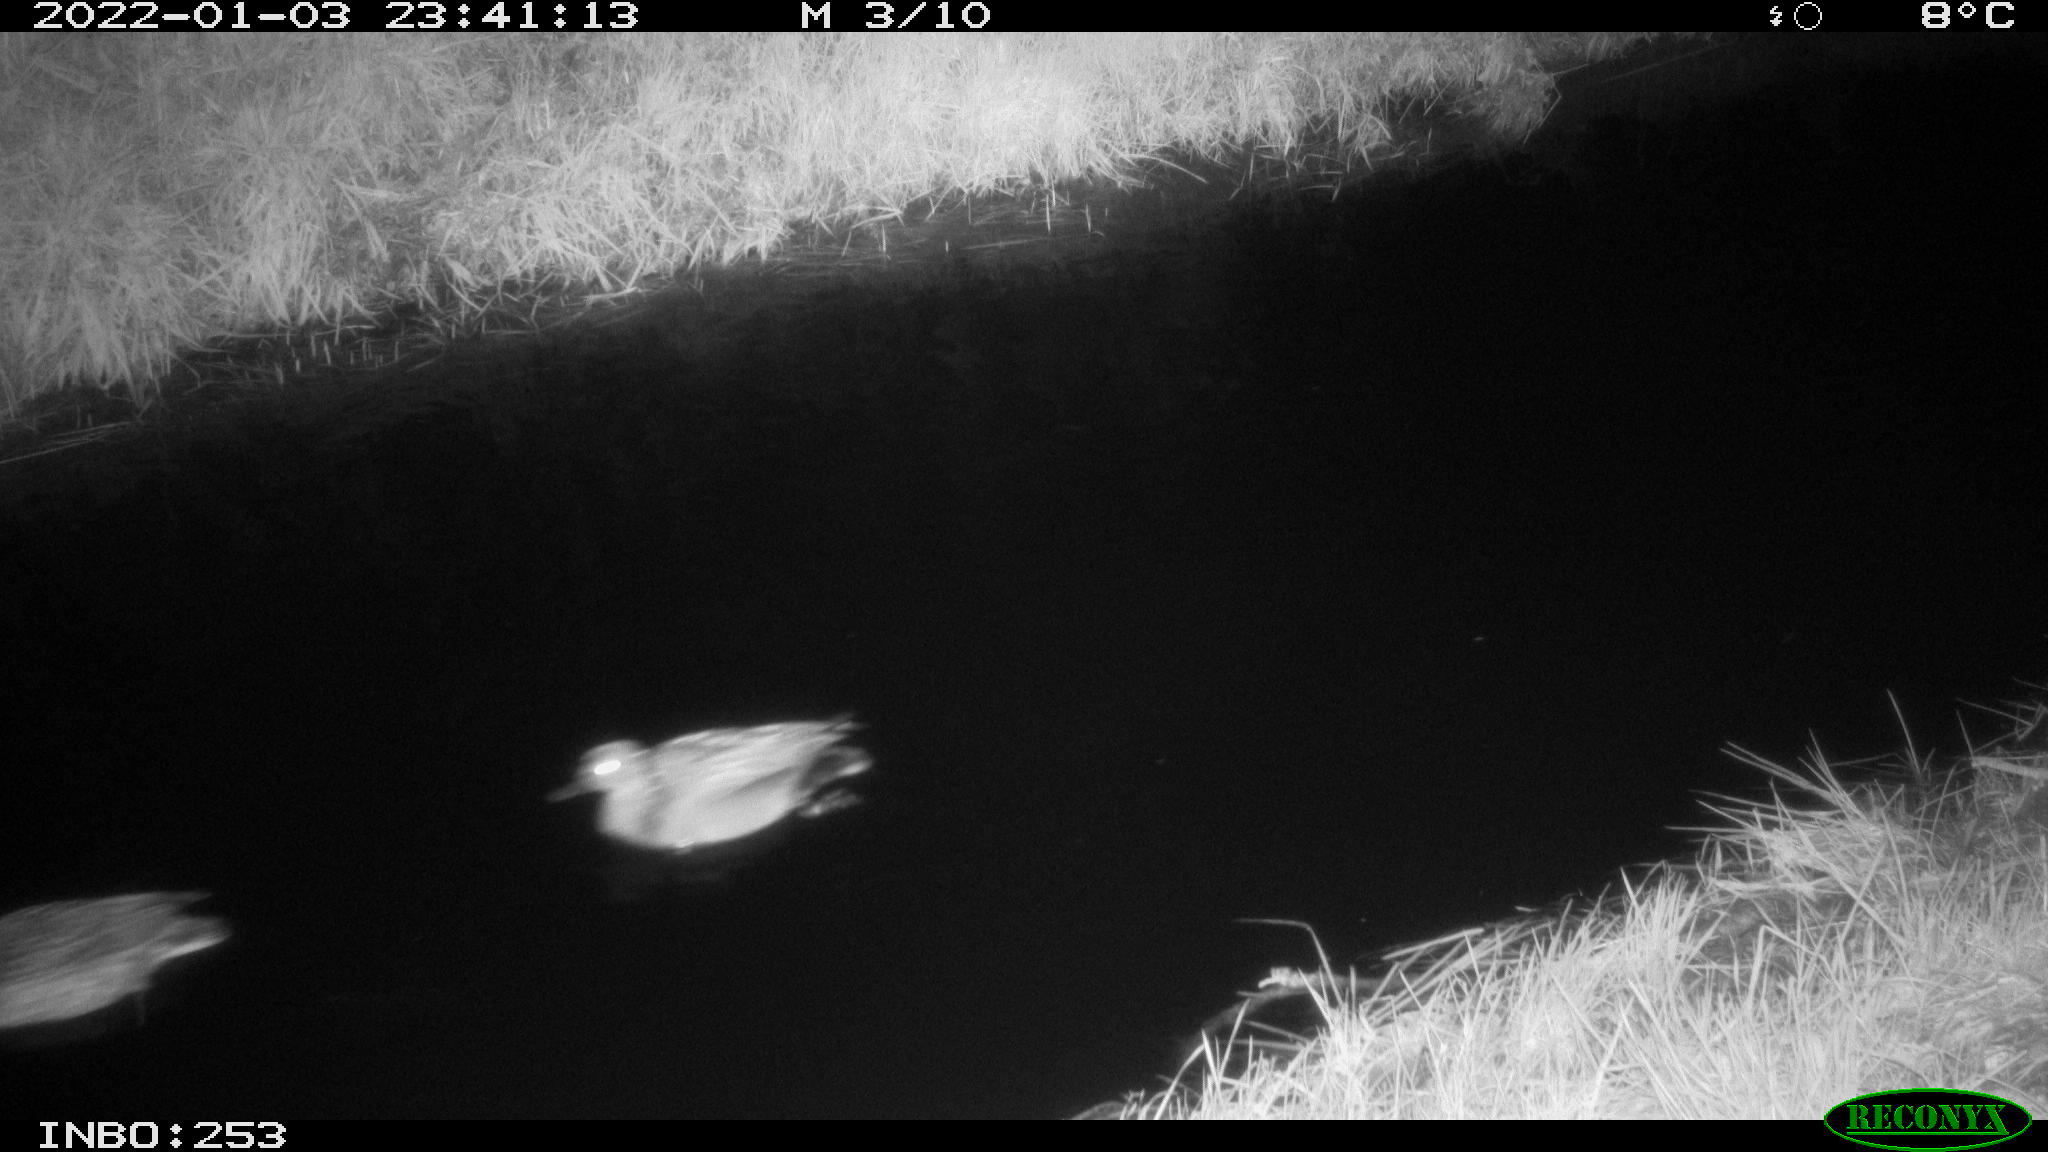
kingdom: Animalia
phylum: Chordata
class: Aves
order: Anseriformes
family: Anatidae
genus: Anas
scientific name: Anas
